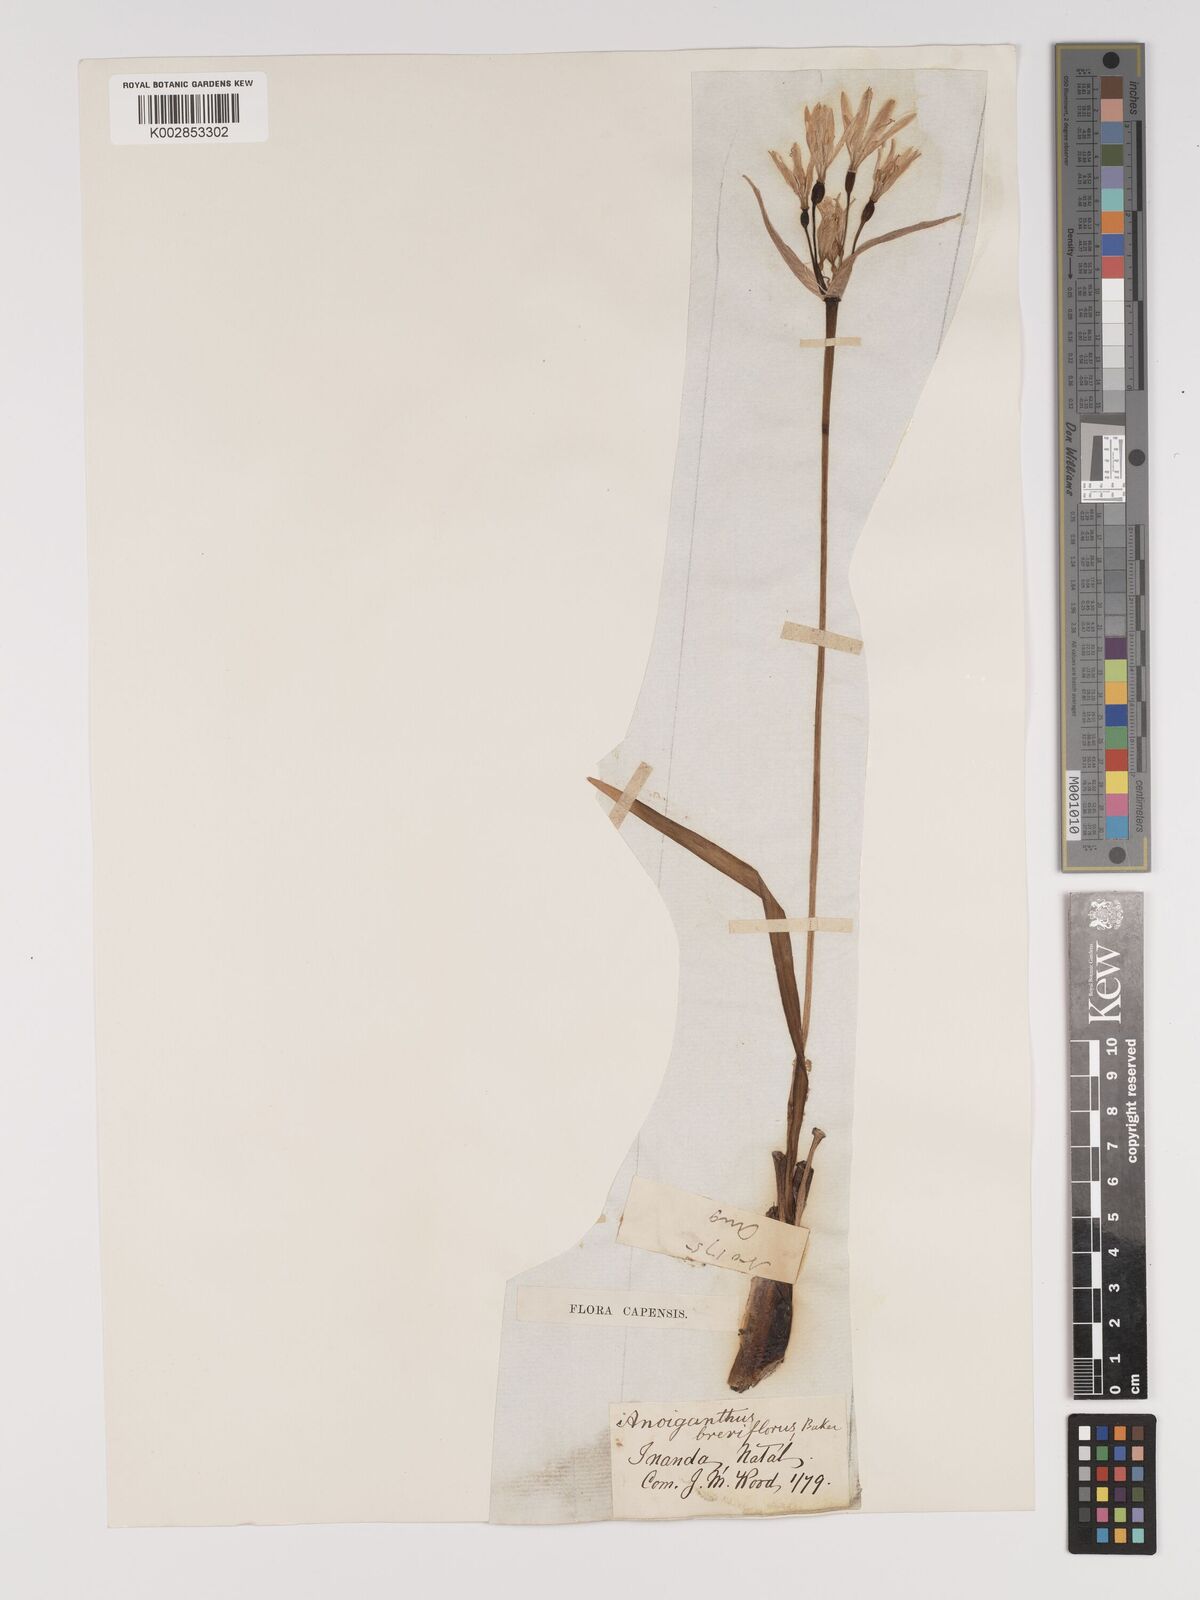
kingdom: Plantae
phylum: Tracheophyta
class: Liliopsida
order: Asparagales
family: Amaryllidaceae
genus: Cyrtanthus
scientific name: Cyrtanthus breviflorus
